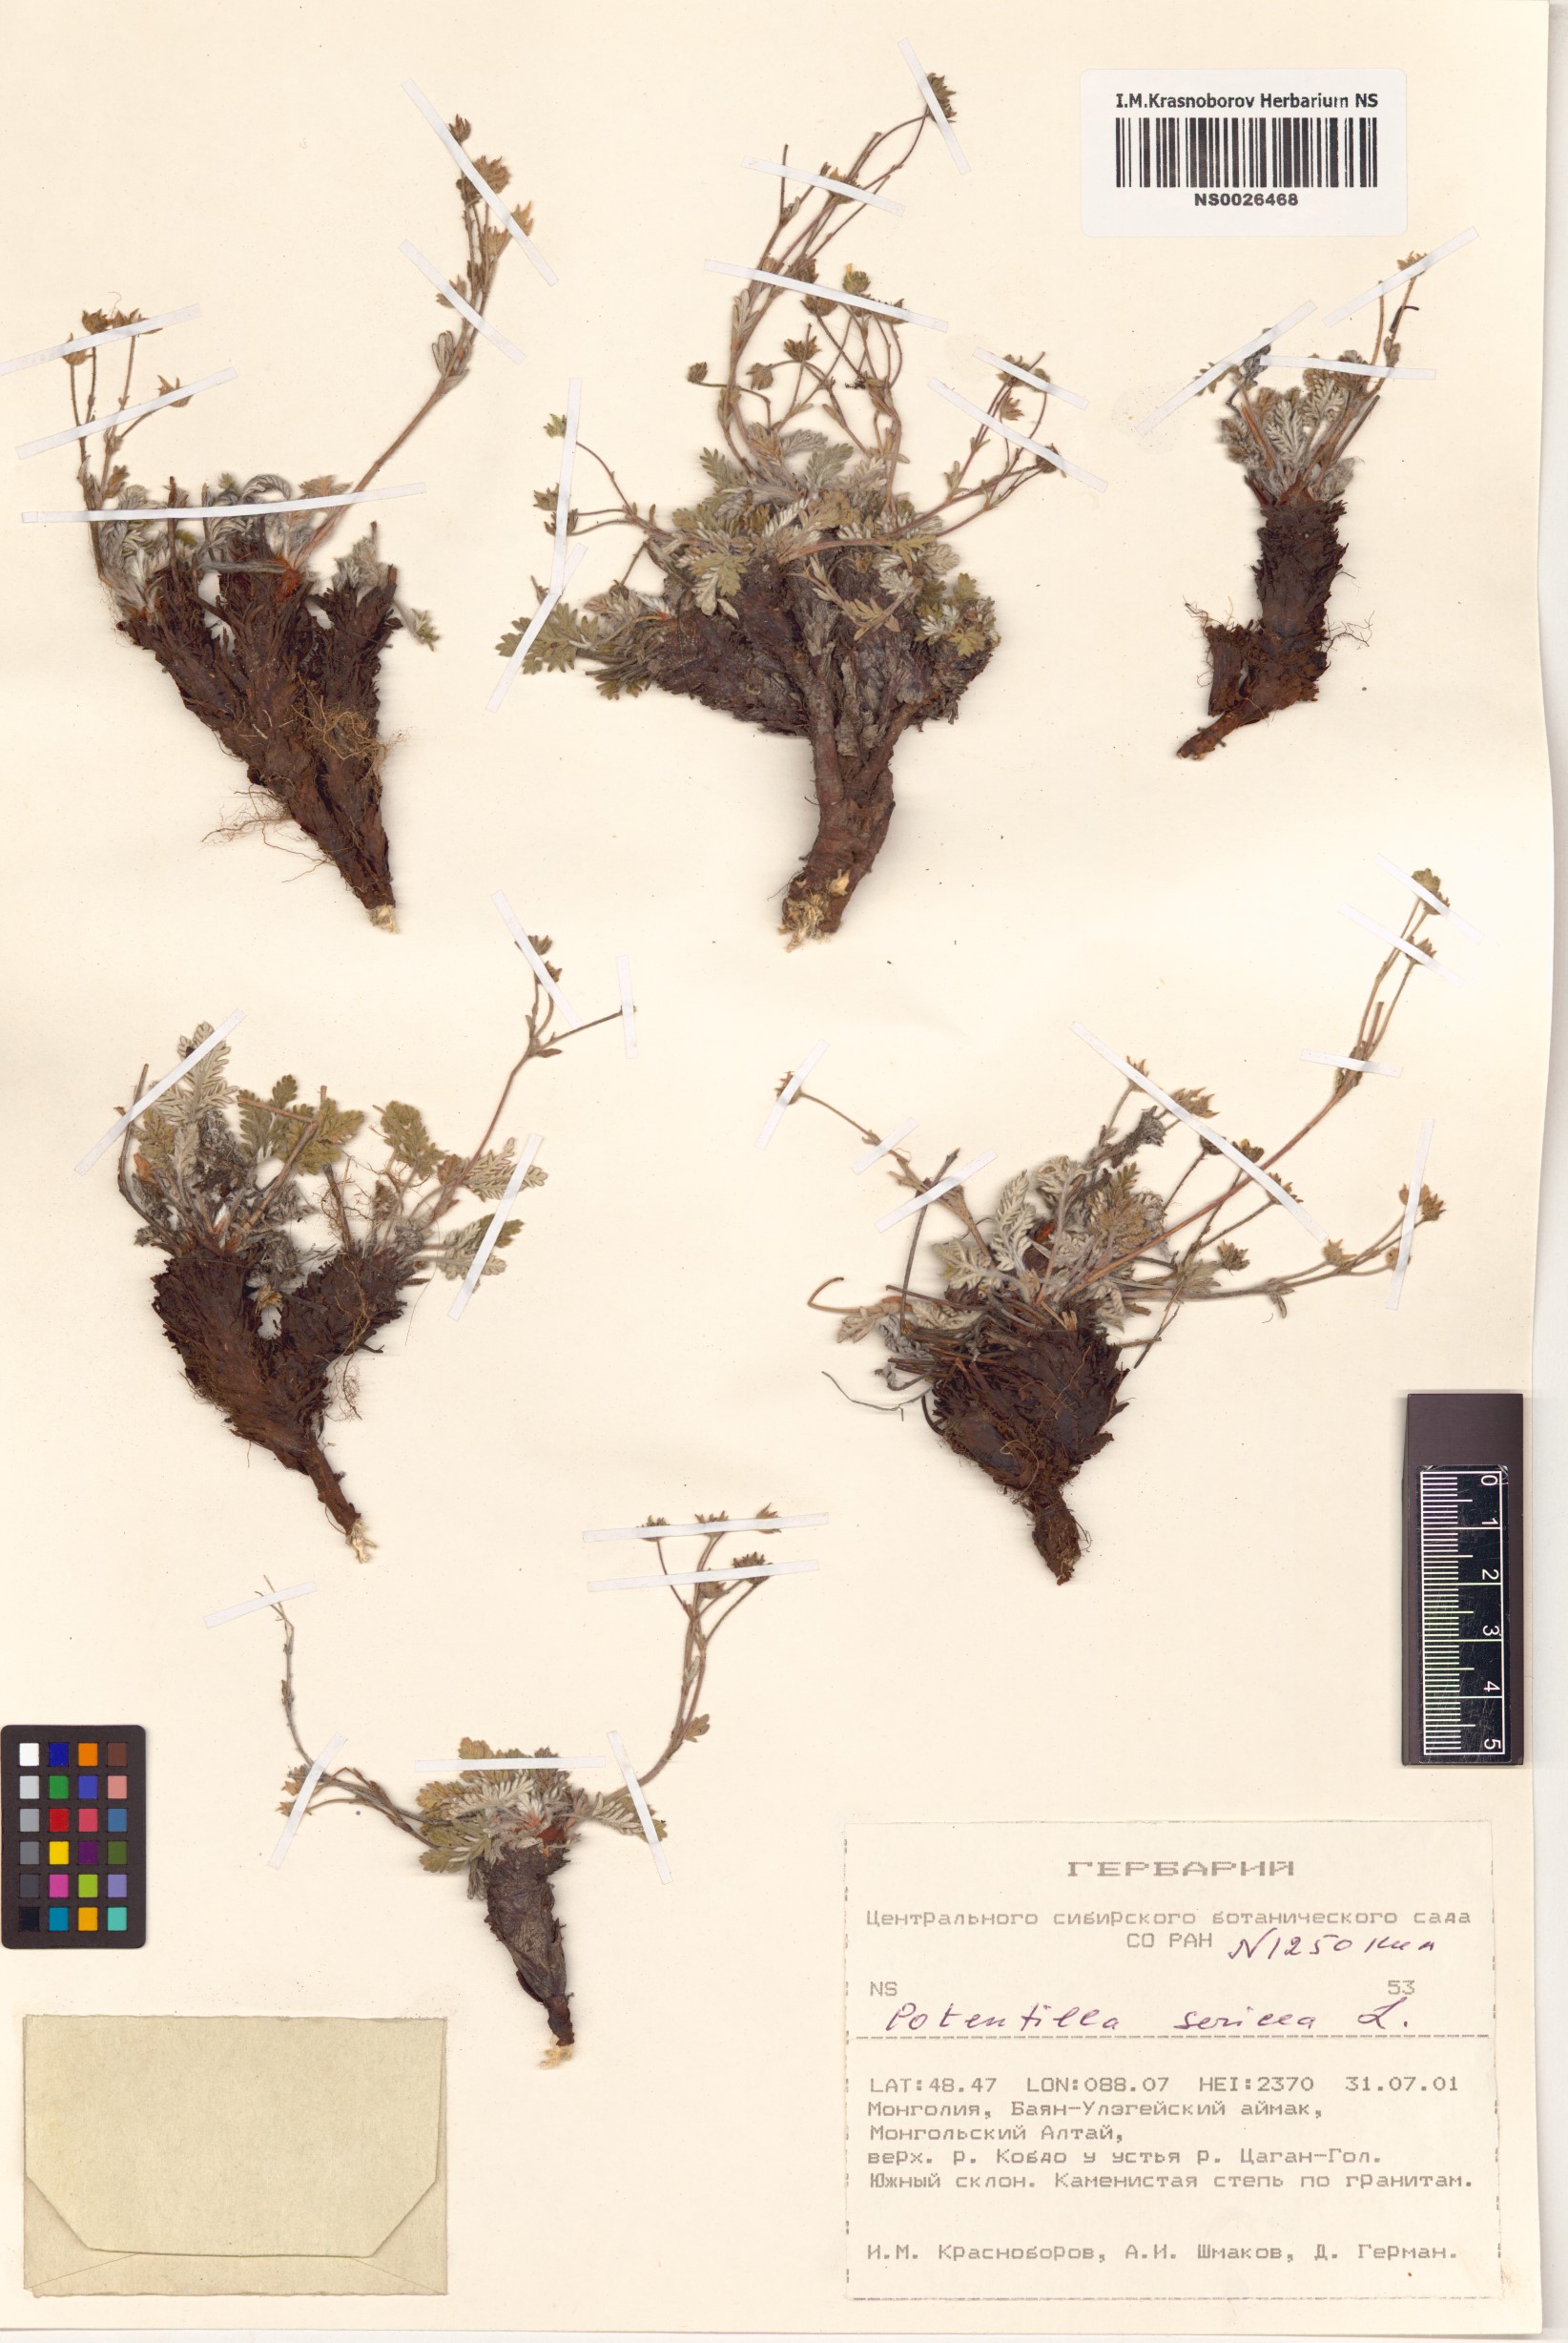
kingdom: Plantae
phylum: Tracheophyta
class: Magnoliopsida
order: Rosales
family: Rosaceae
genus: Potentilla
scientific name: Potentilla sericea
